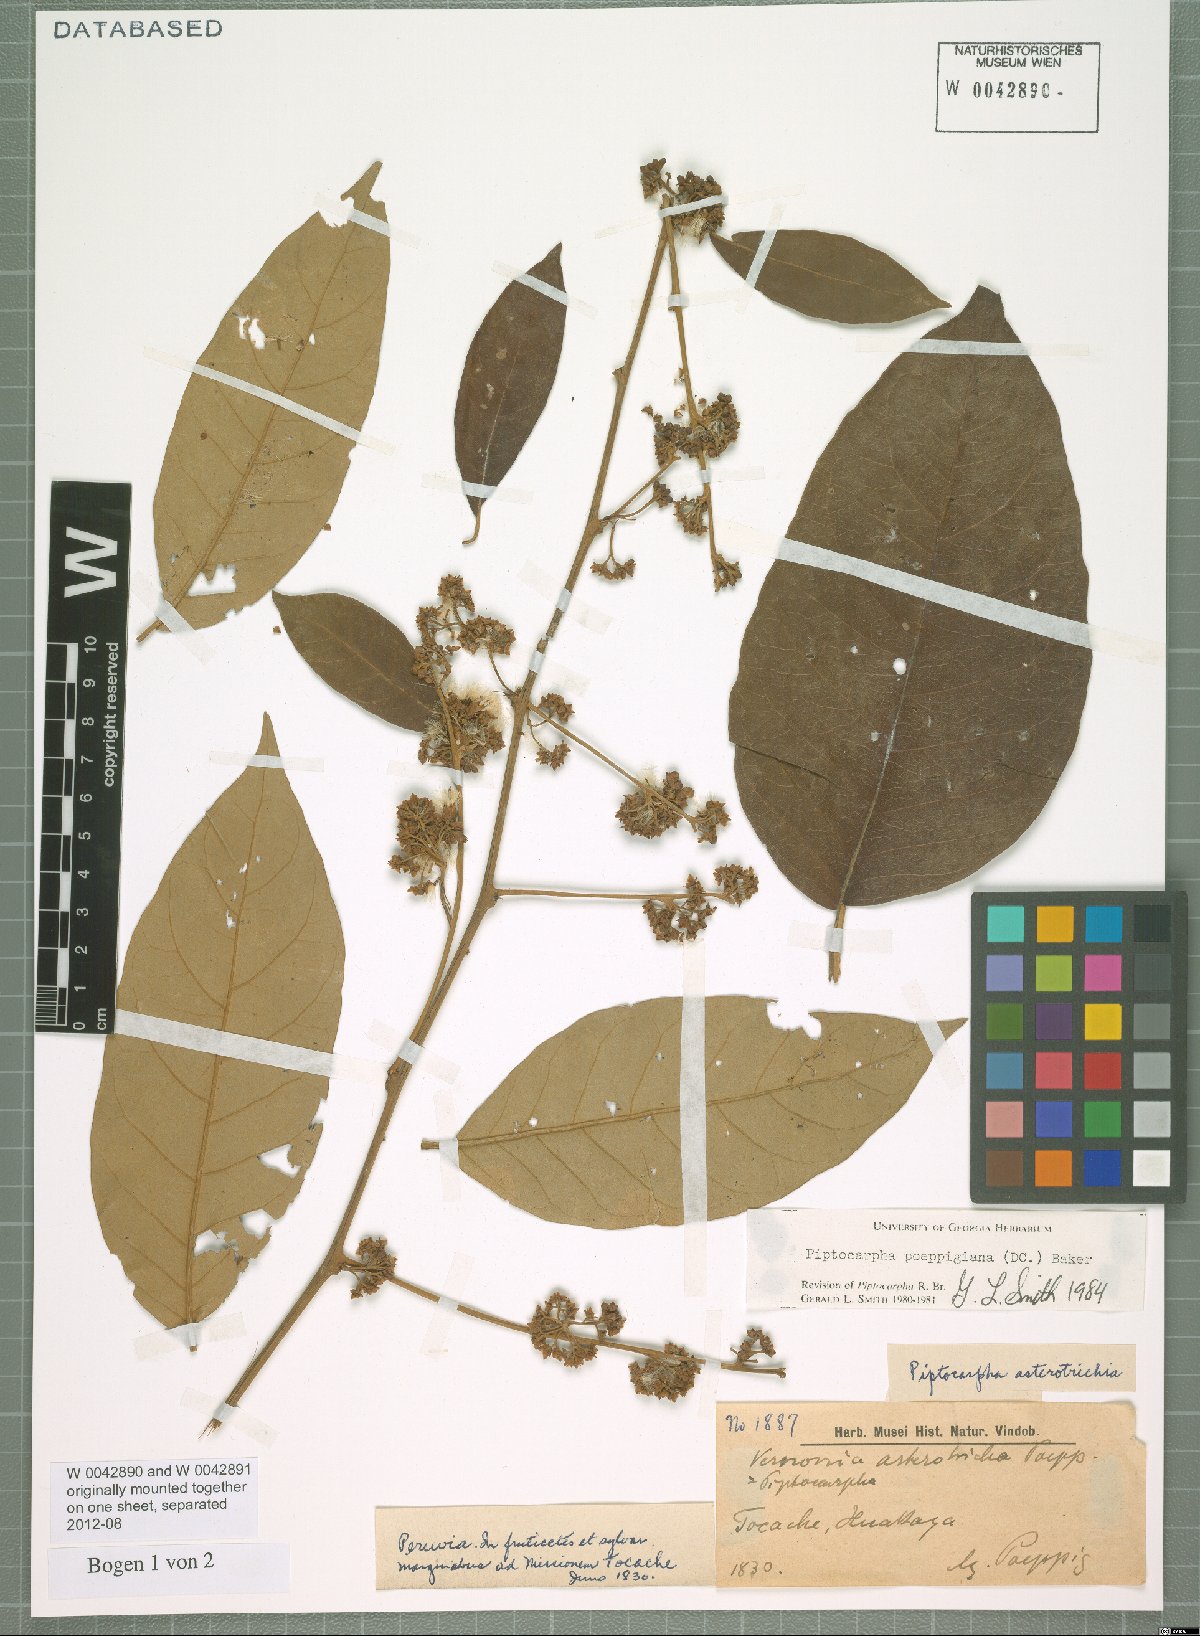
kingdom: Plantae
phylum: Tracheophyta
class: Magnoliopsida
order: Asterales
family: Asteraceae
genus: Piptocarpha
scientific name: Piptocarpha poeppigiana
